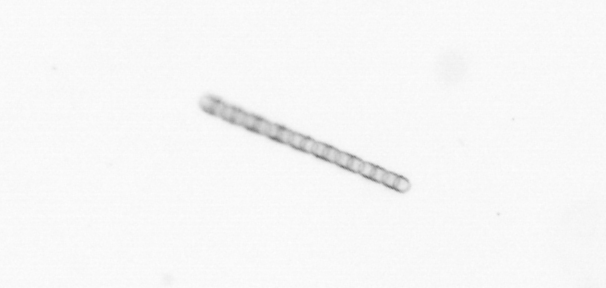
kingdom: Chromista
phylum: Ochrophyta
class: Bacillariophyceae
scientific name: Bacillariophyceae
